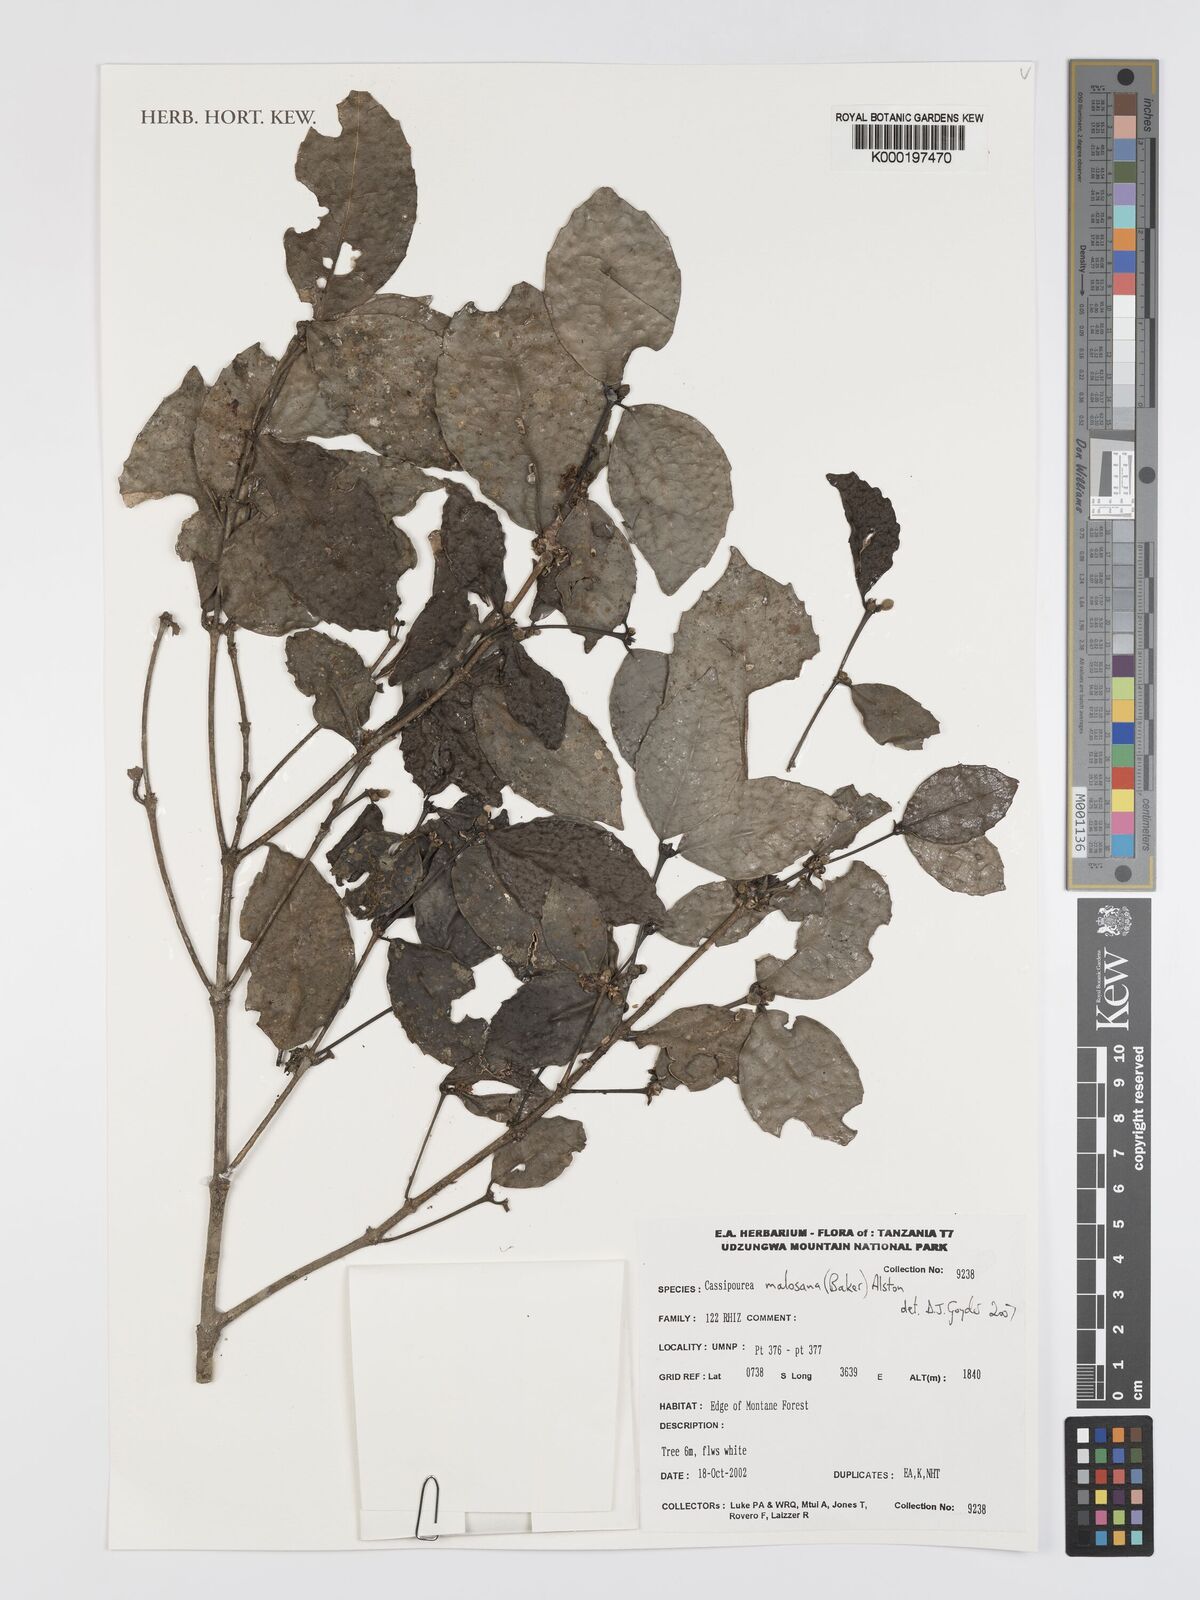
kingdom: Plantae
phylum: Tracheophyta
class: Magnoliopsida
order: Malpighiales
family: Rhizophoraceae
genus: Cassipourea
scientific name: Cassipourea malosana
